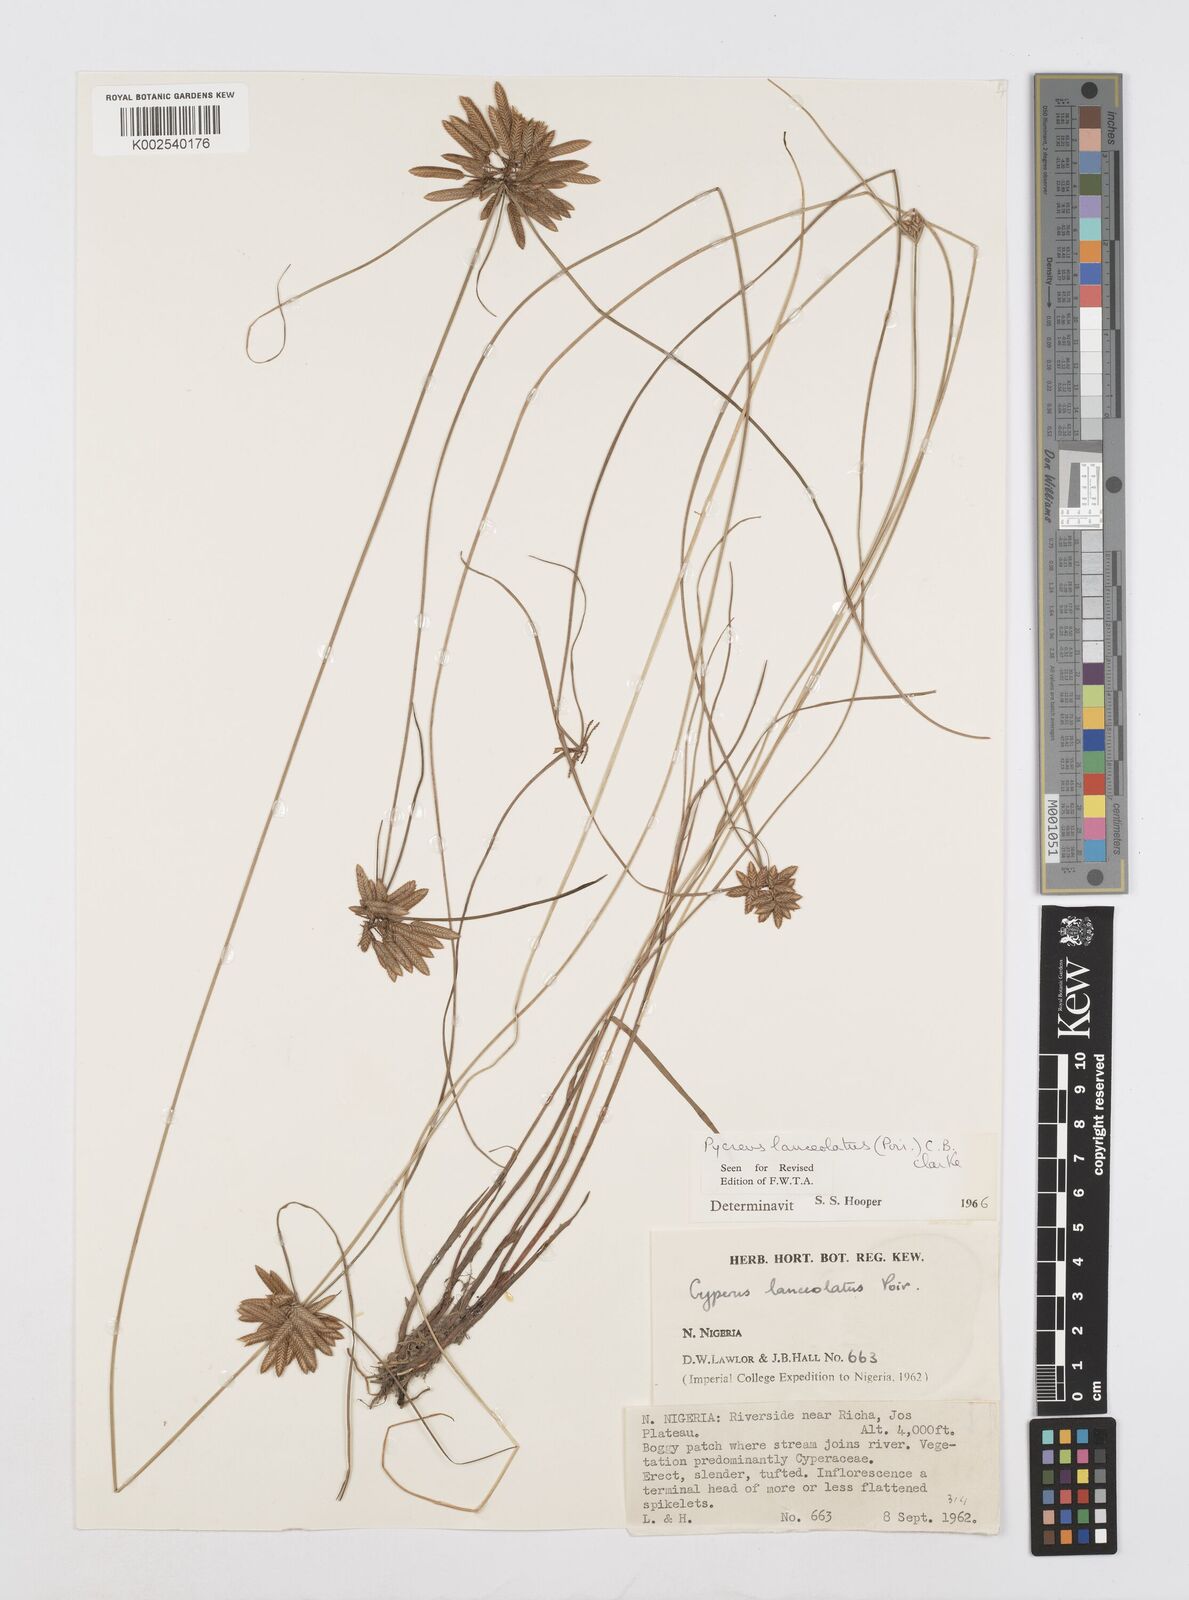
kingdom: Plantae
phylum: Tracheophyta
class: Liliopsida
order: Poales
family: Cyperaceae
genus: Cyperus
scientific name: Cyperus
